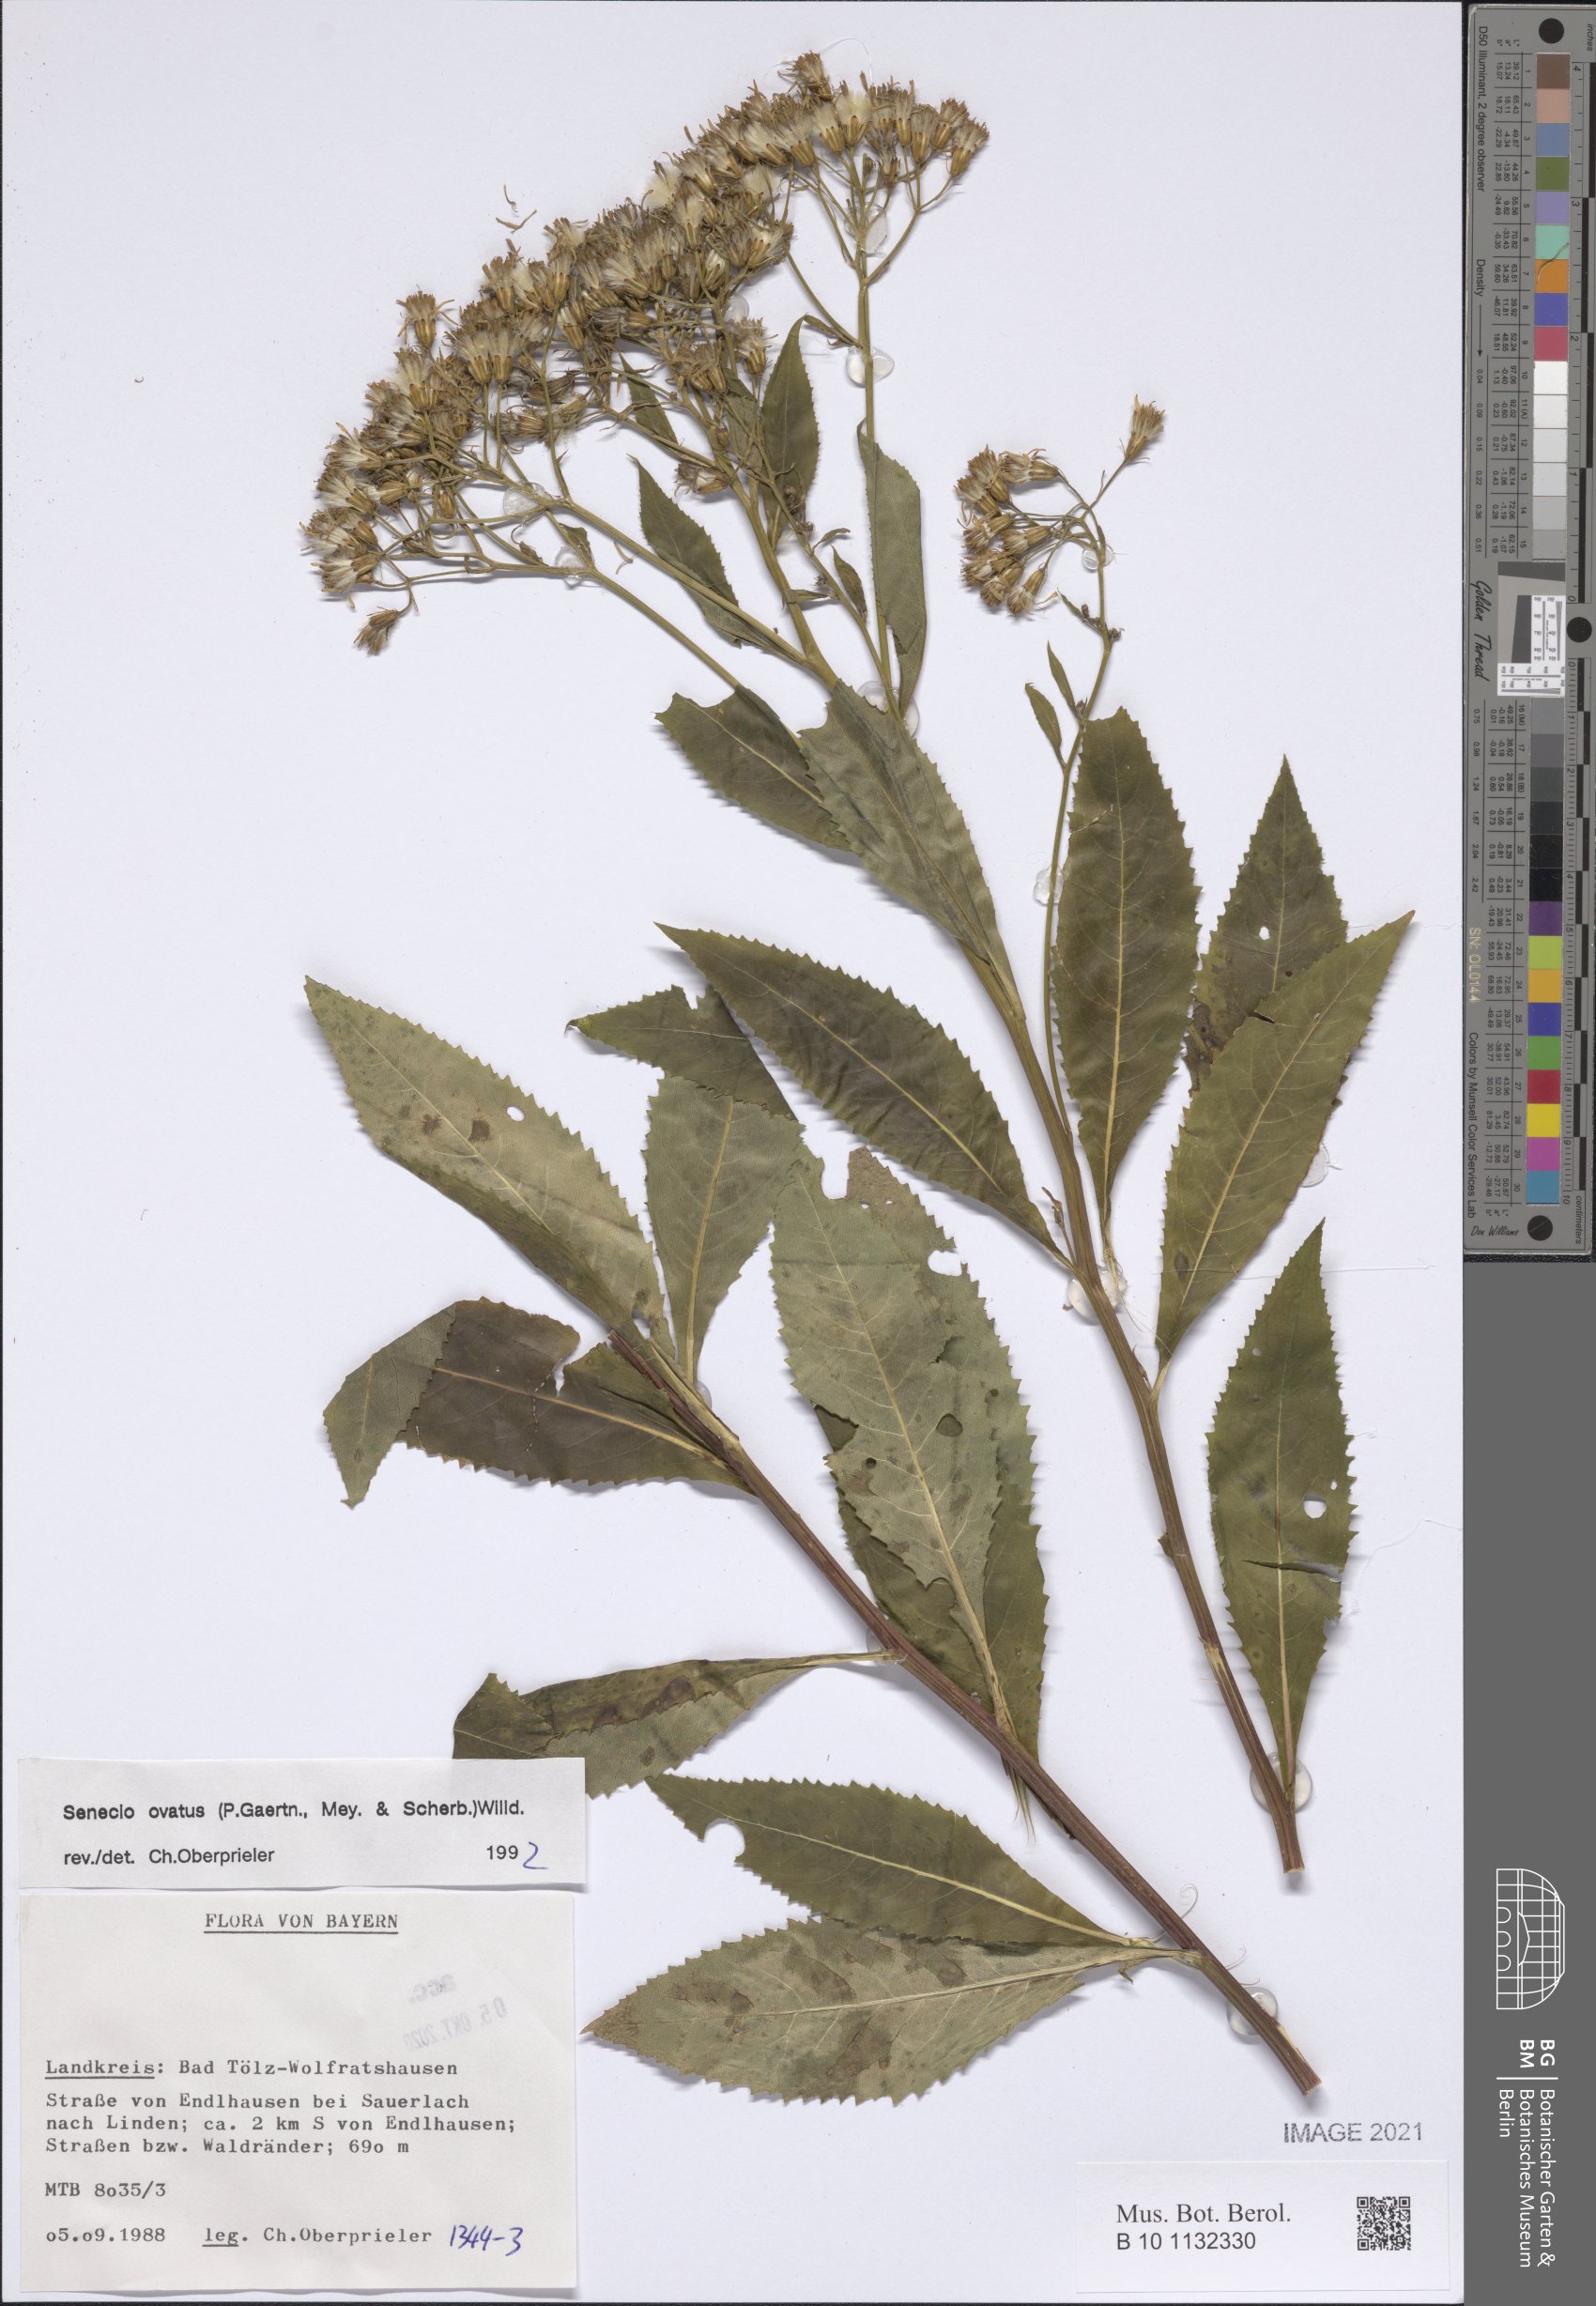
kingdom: Plantae
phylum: Tracheophyta
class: Magnoliopsida
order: Asterales
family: Asteraceae
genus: Senecio
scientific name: Senecio ovatus
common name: Wood ragwort
